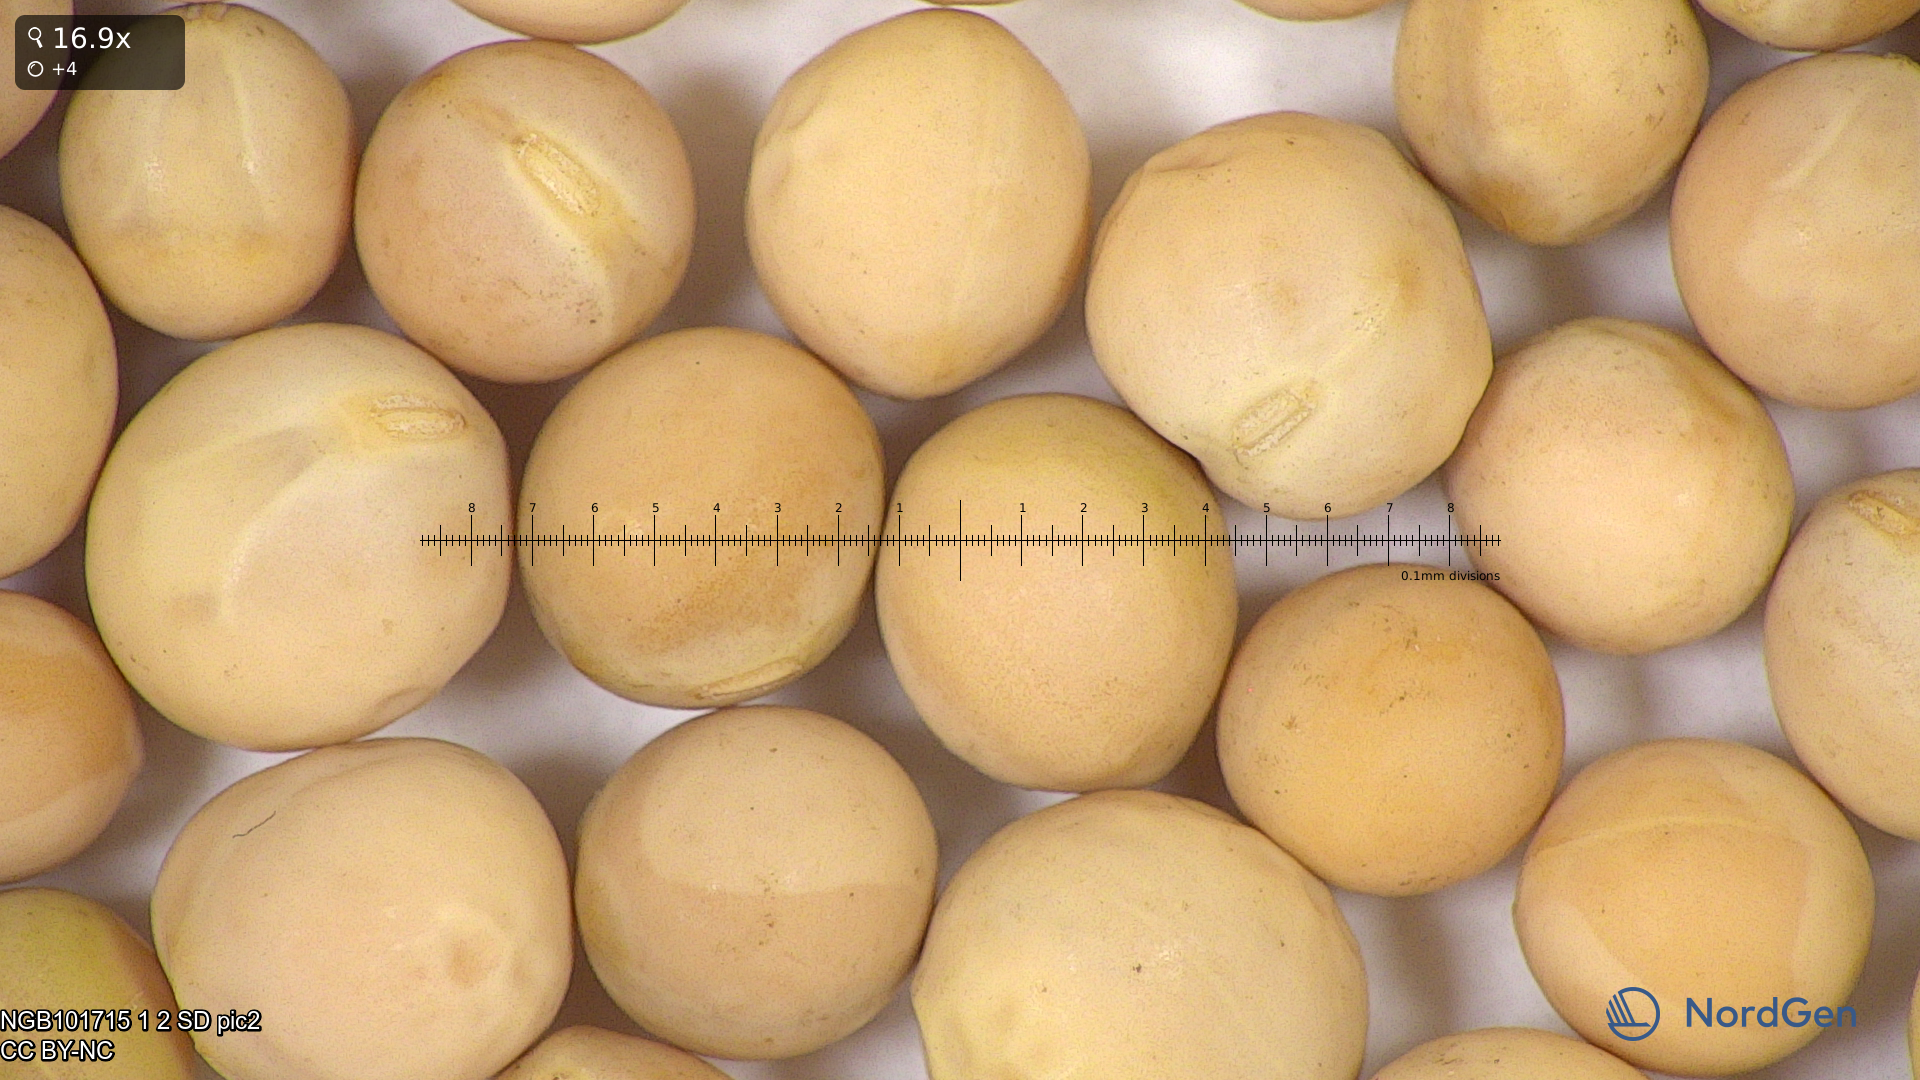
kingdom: Plantae
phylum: Tracheophyta
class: Magnoliopsida
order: Fabales
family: Fabaceae
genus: Lathyrus
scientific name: Lathyrus oleraceus
